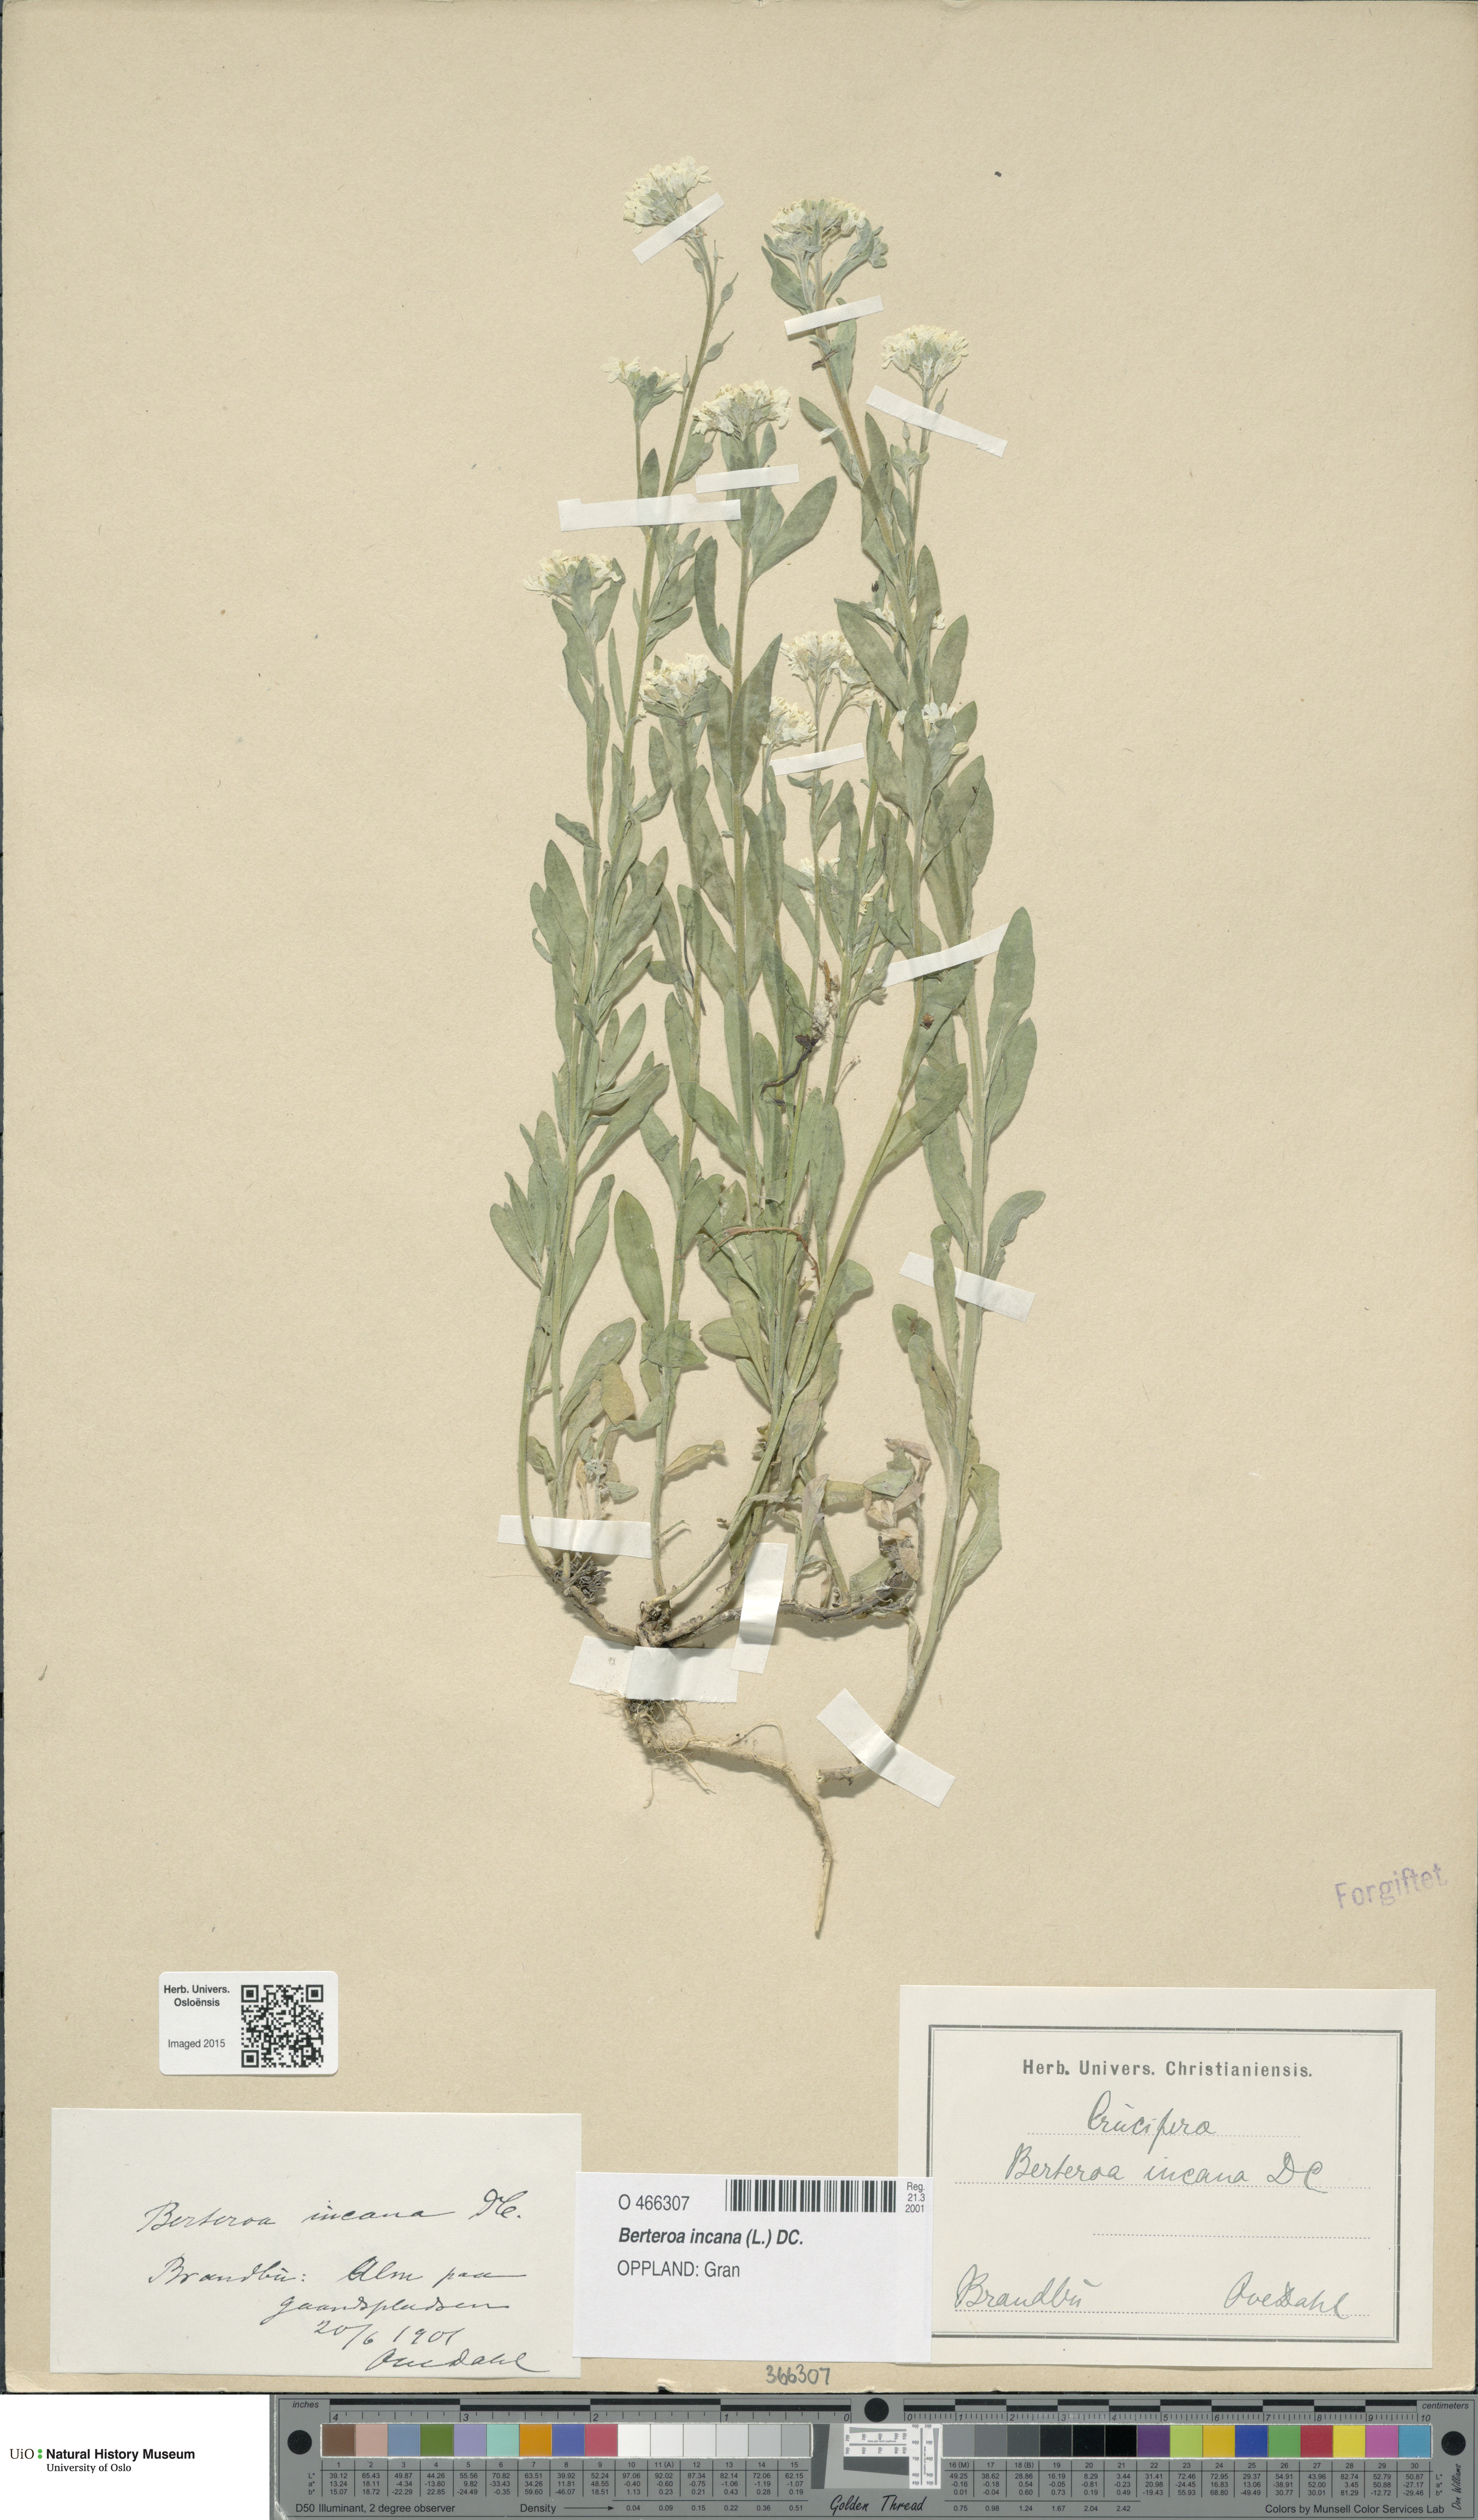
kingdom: Plantae
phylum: Tracheophyta
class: Magnoliopsida
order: Brassicales
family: Brassicaceae
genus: Berteroa
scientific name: Berteroa incana
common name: Hoary alison
